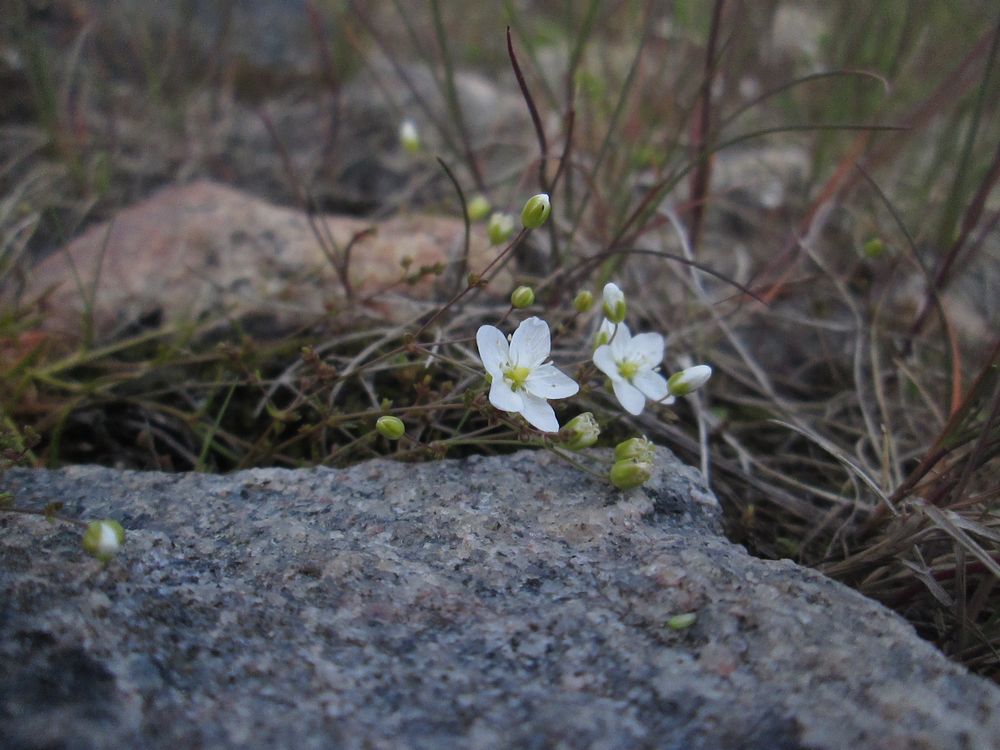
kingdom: Plantae
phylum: Tracheophyta
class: Magnoliopsida
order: Caryophyllales
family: Caryophyllaceae
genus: Sagina
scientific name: Sagina nodosa
